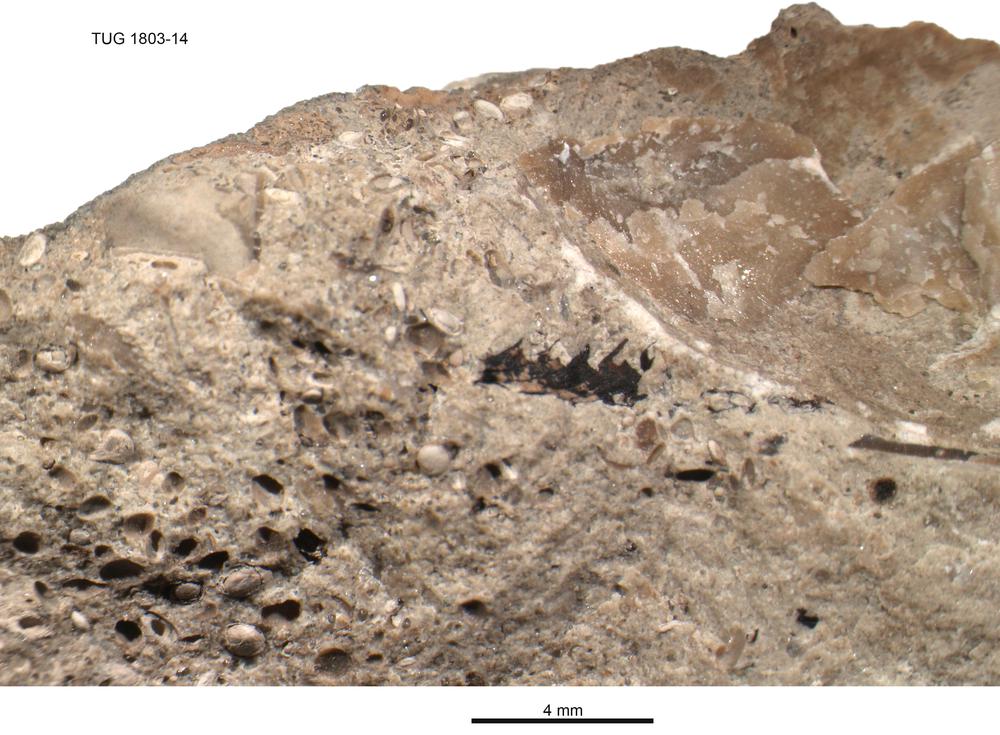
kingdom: Animalia
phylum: Hemichordata
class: Pterobranchia
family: Dichograptidae
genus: Didymograptus
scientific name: Didymograptus
